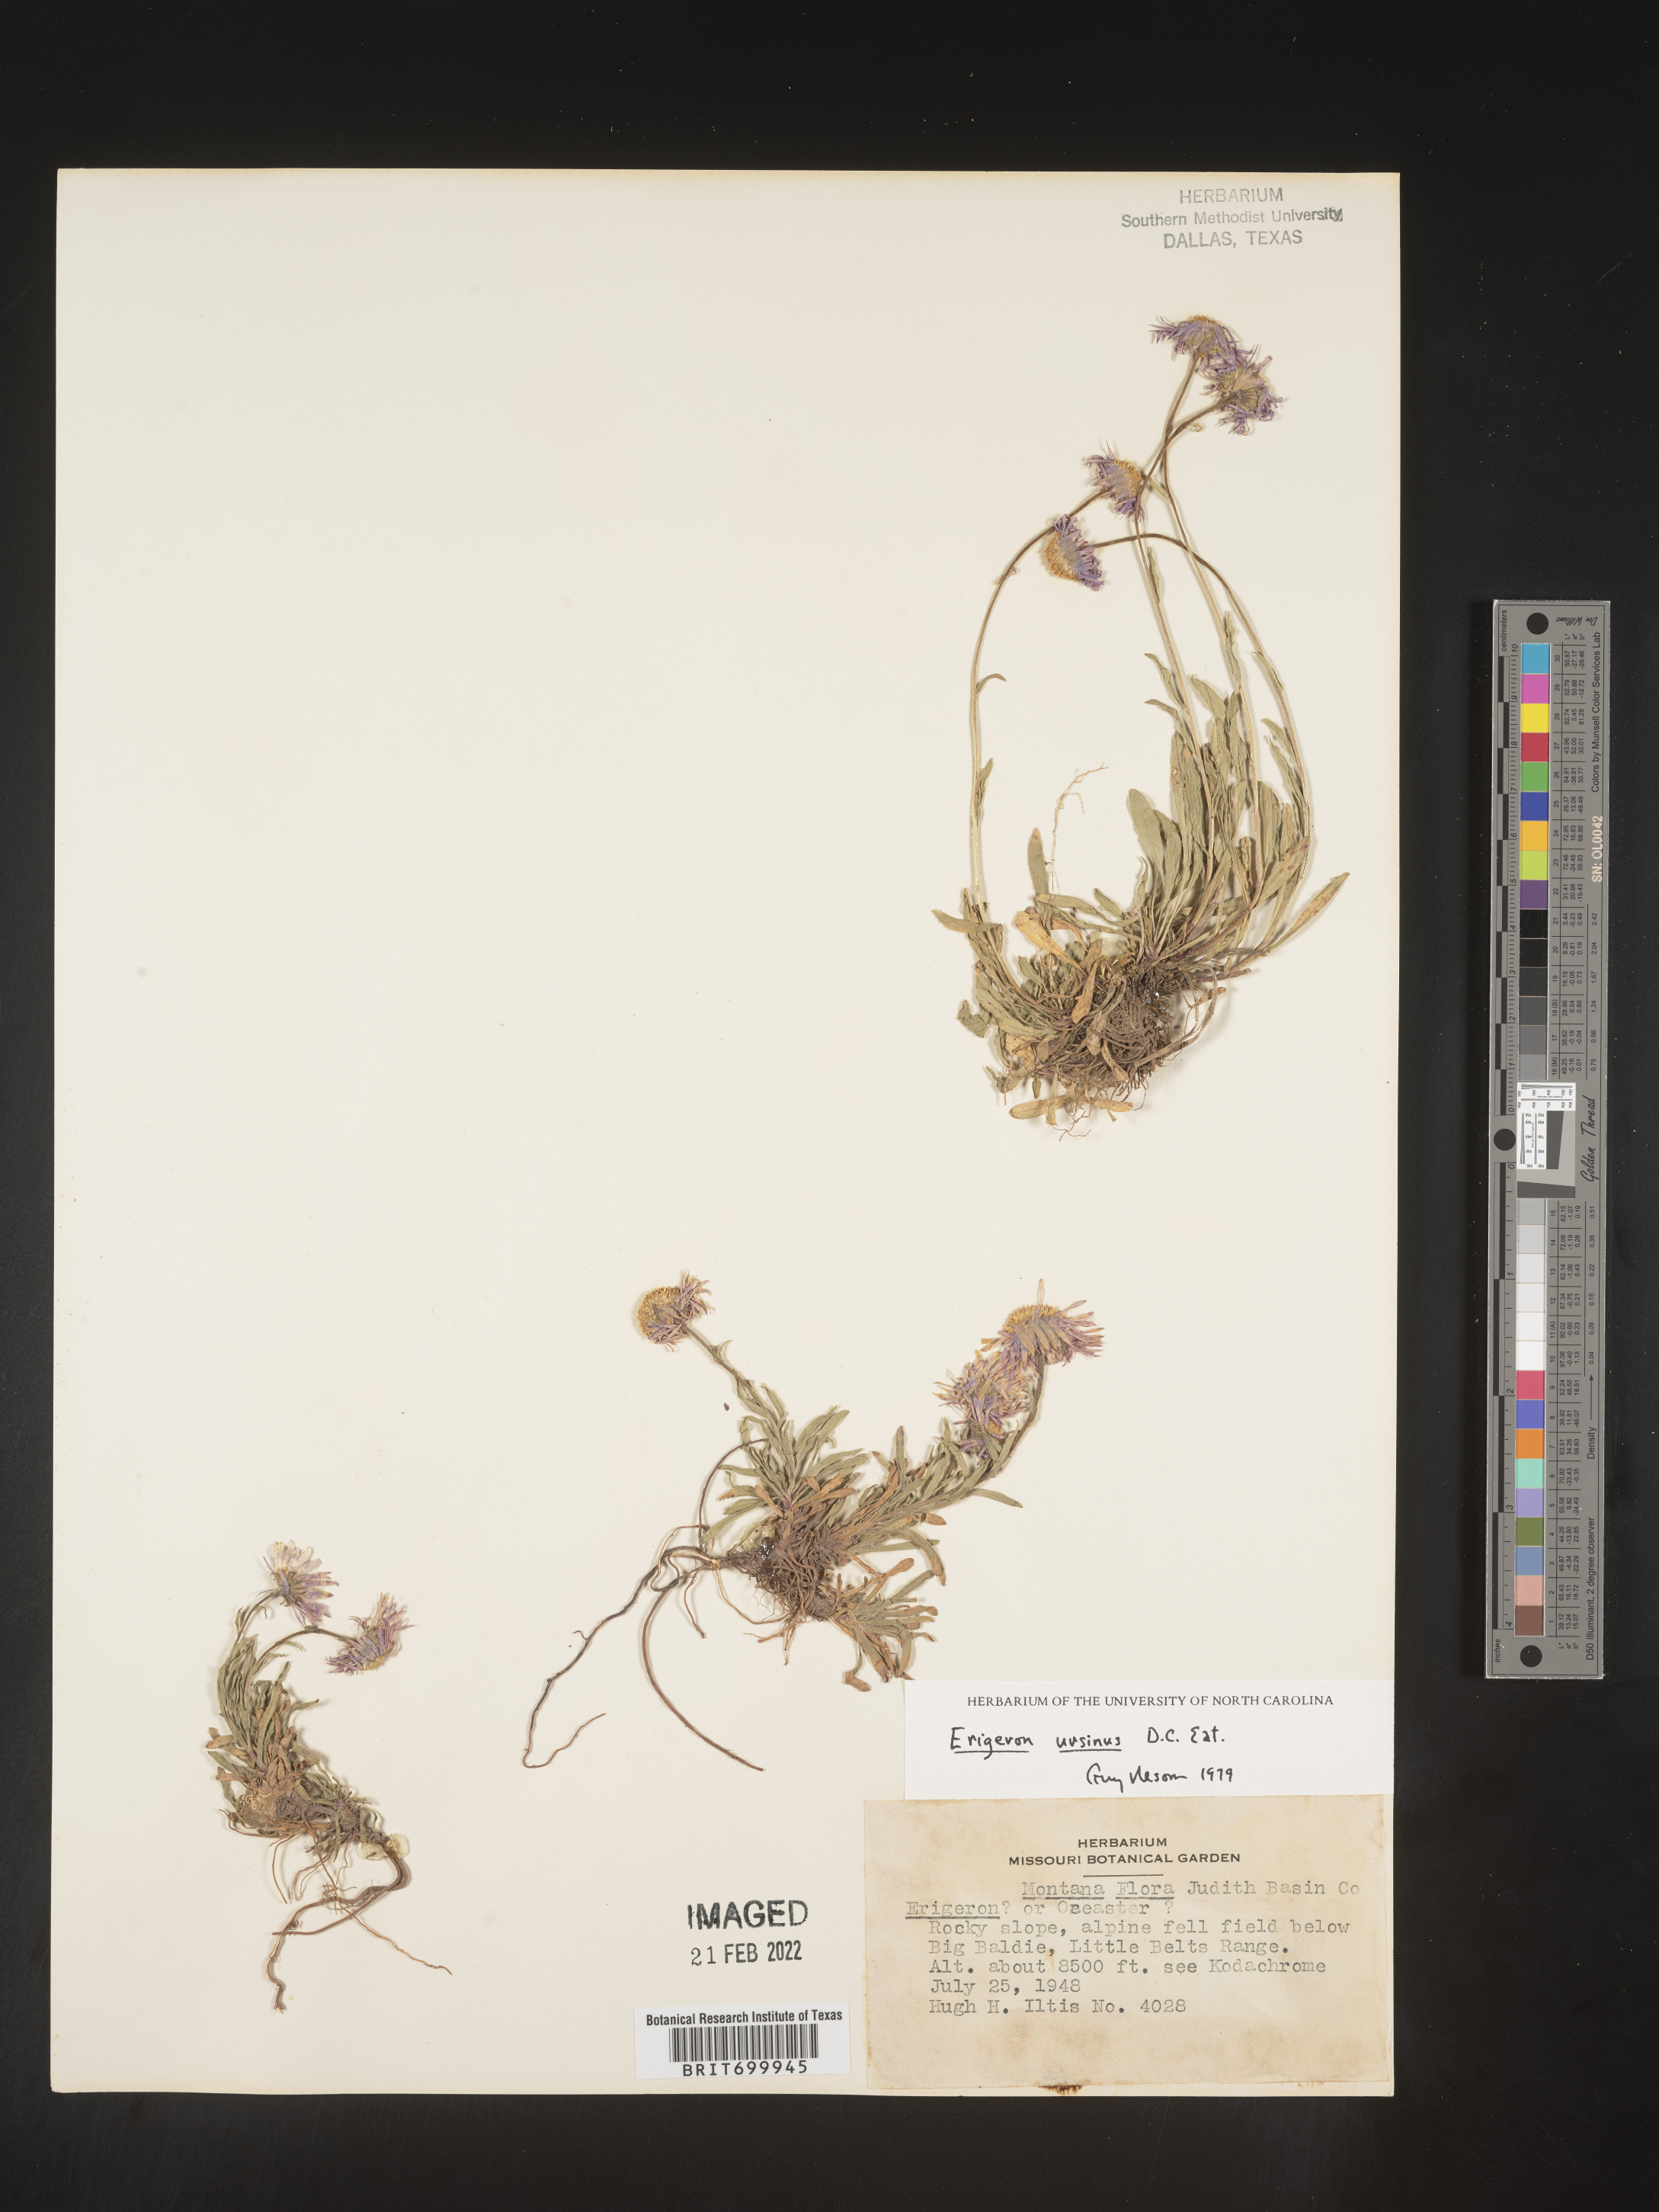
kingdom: Plantae
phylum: Tracheophyta
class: Magnoliopsida
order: Asterales
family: Asteraceae
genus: Erigeron
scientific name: Erigeron ursinus
